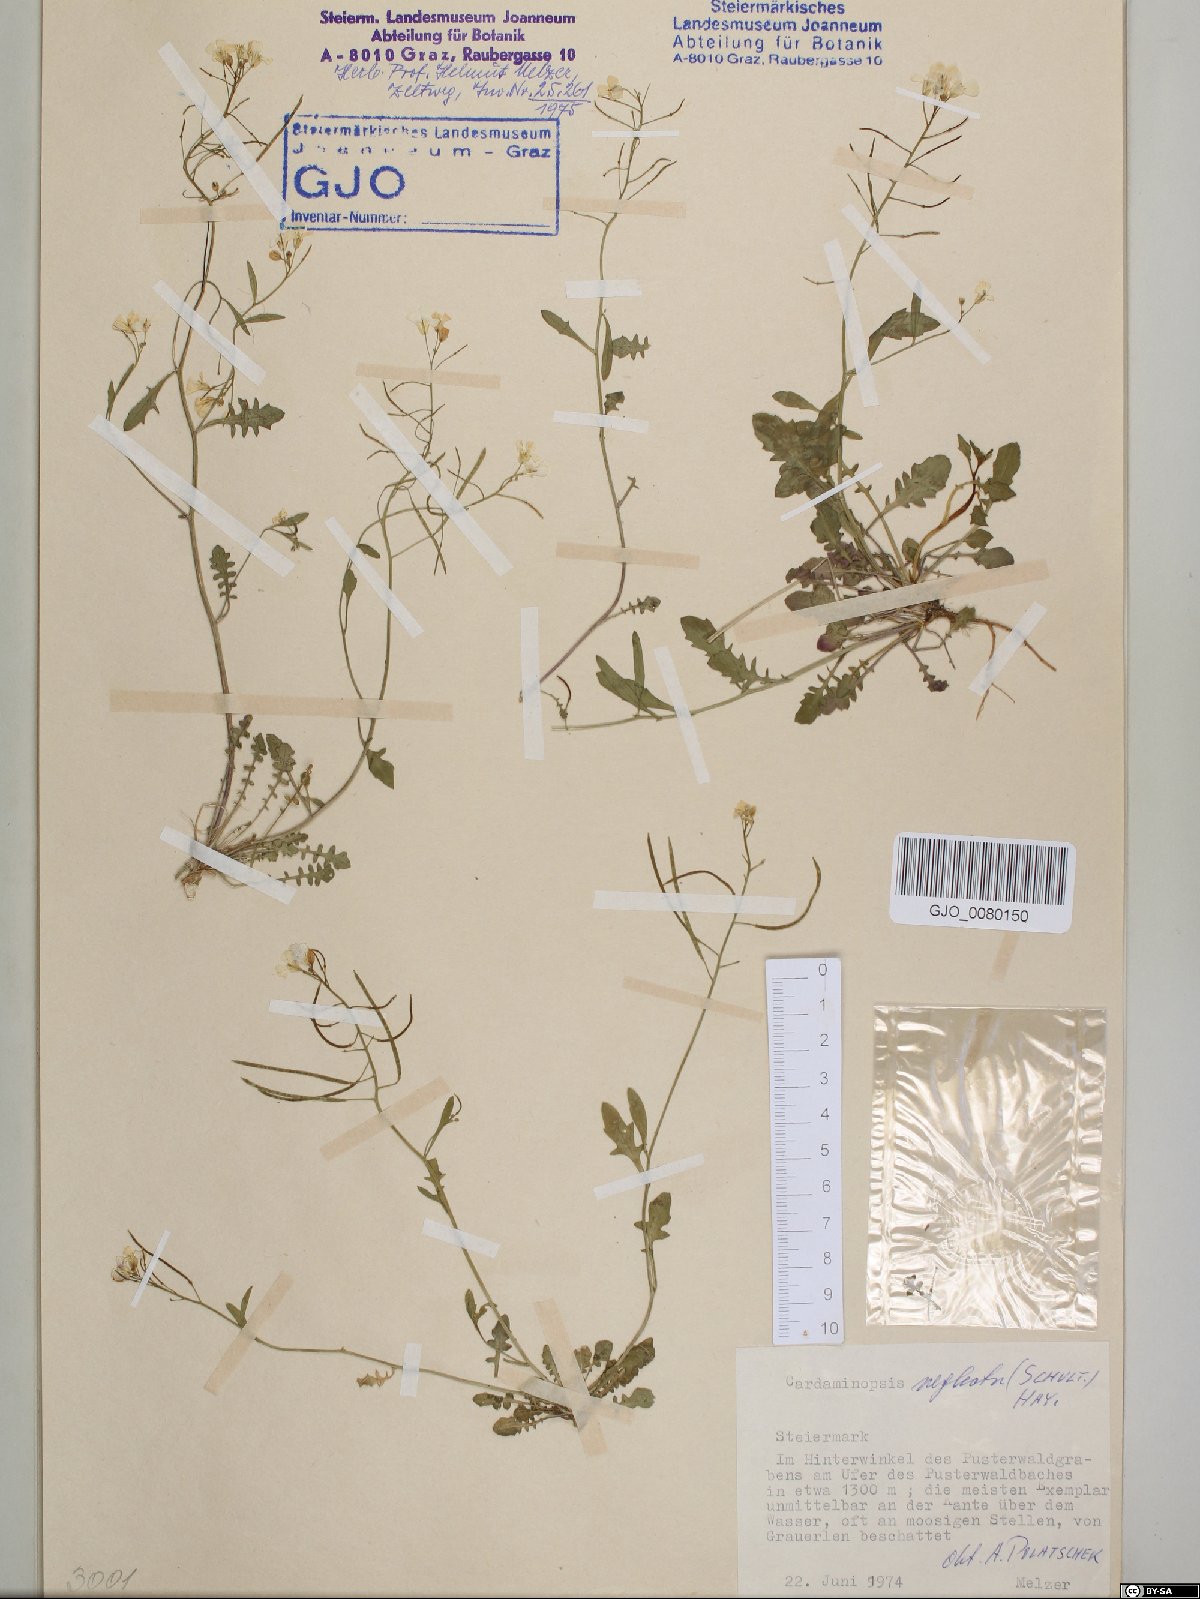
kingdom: Plantae
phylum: Tracheophyta
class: Magnoliopsida
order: Brassicales
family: Brassicaceae
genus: Arabidopsis
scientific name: Arabidopsis neglecta
